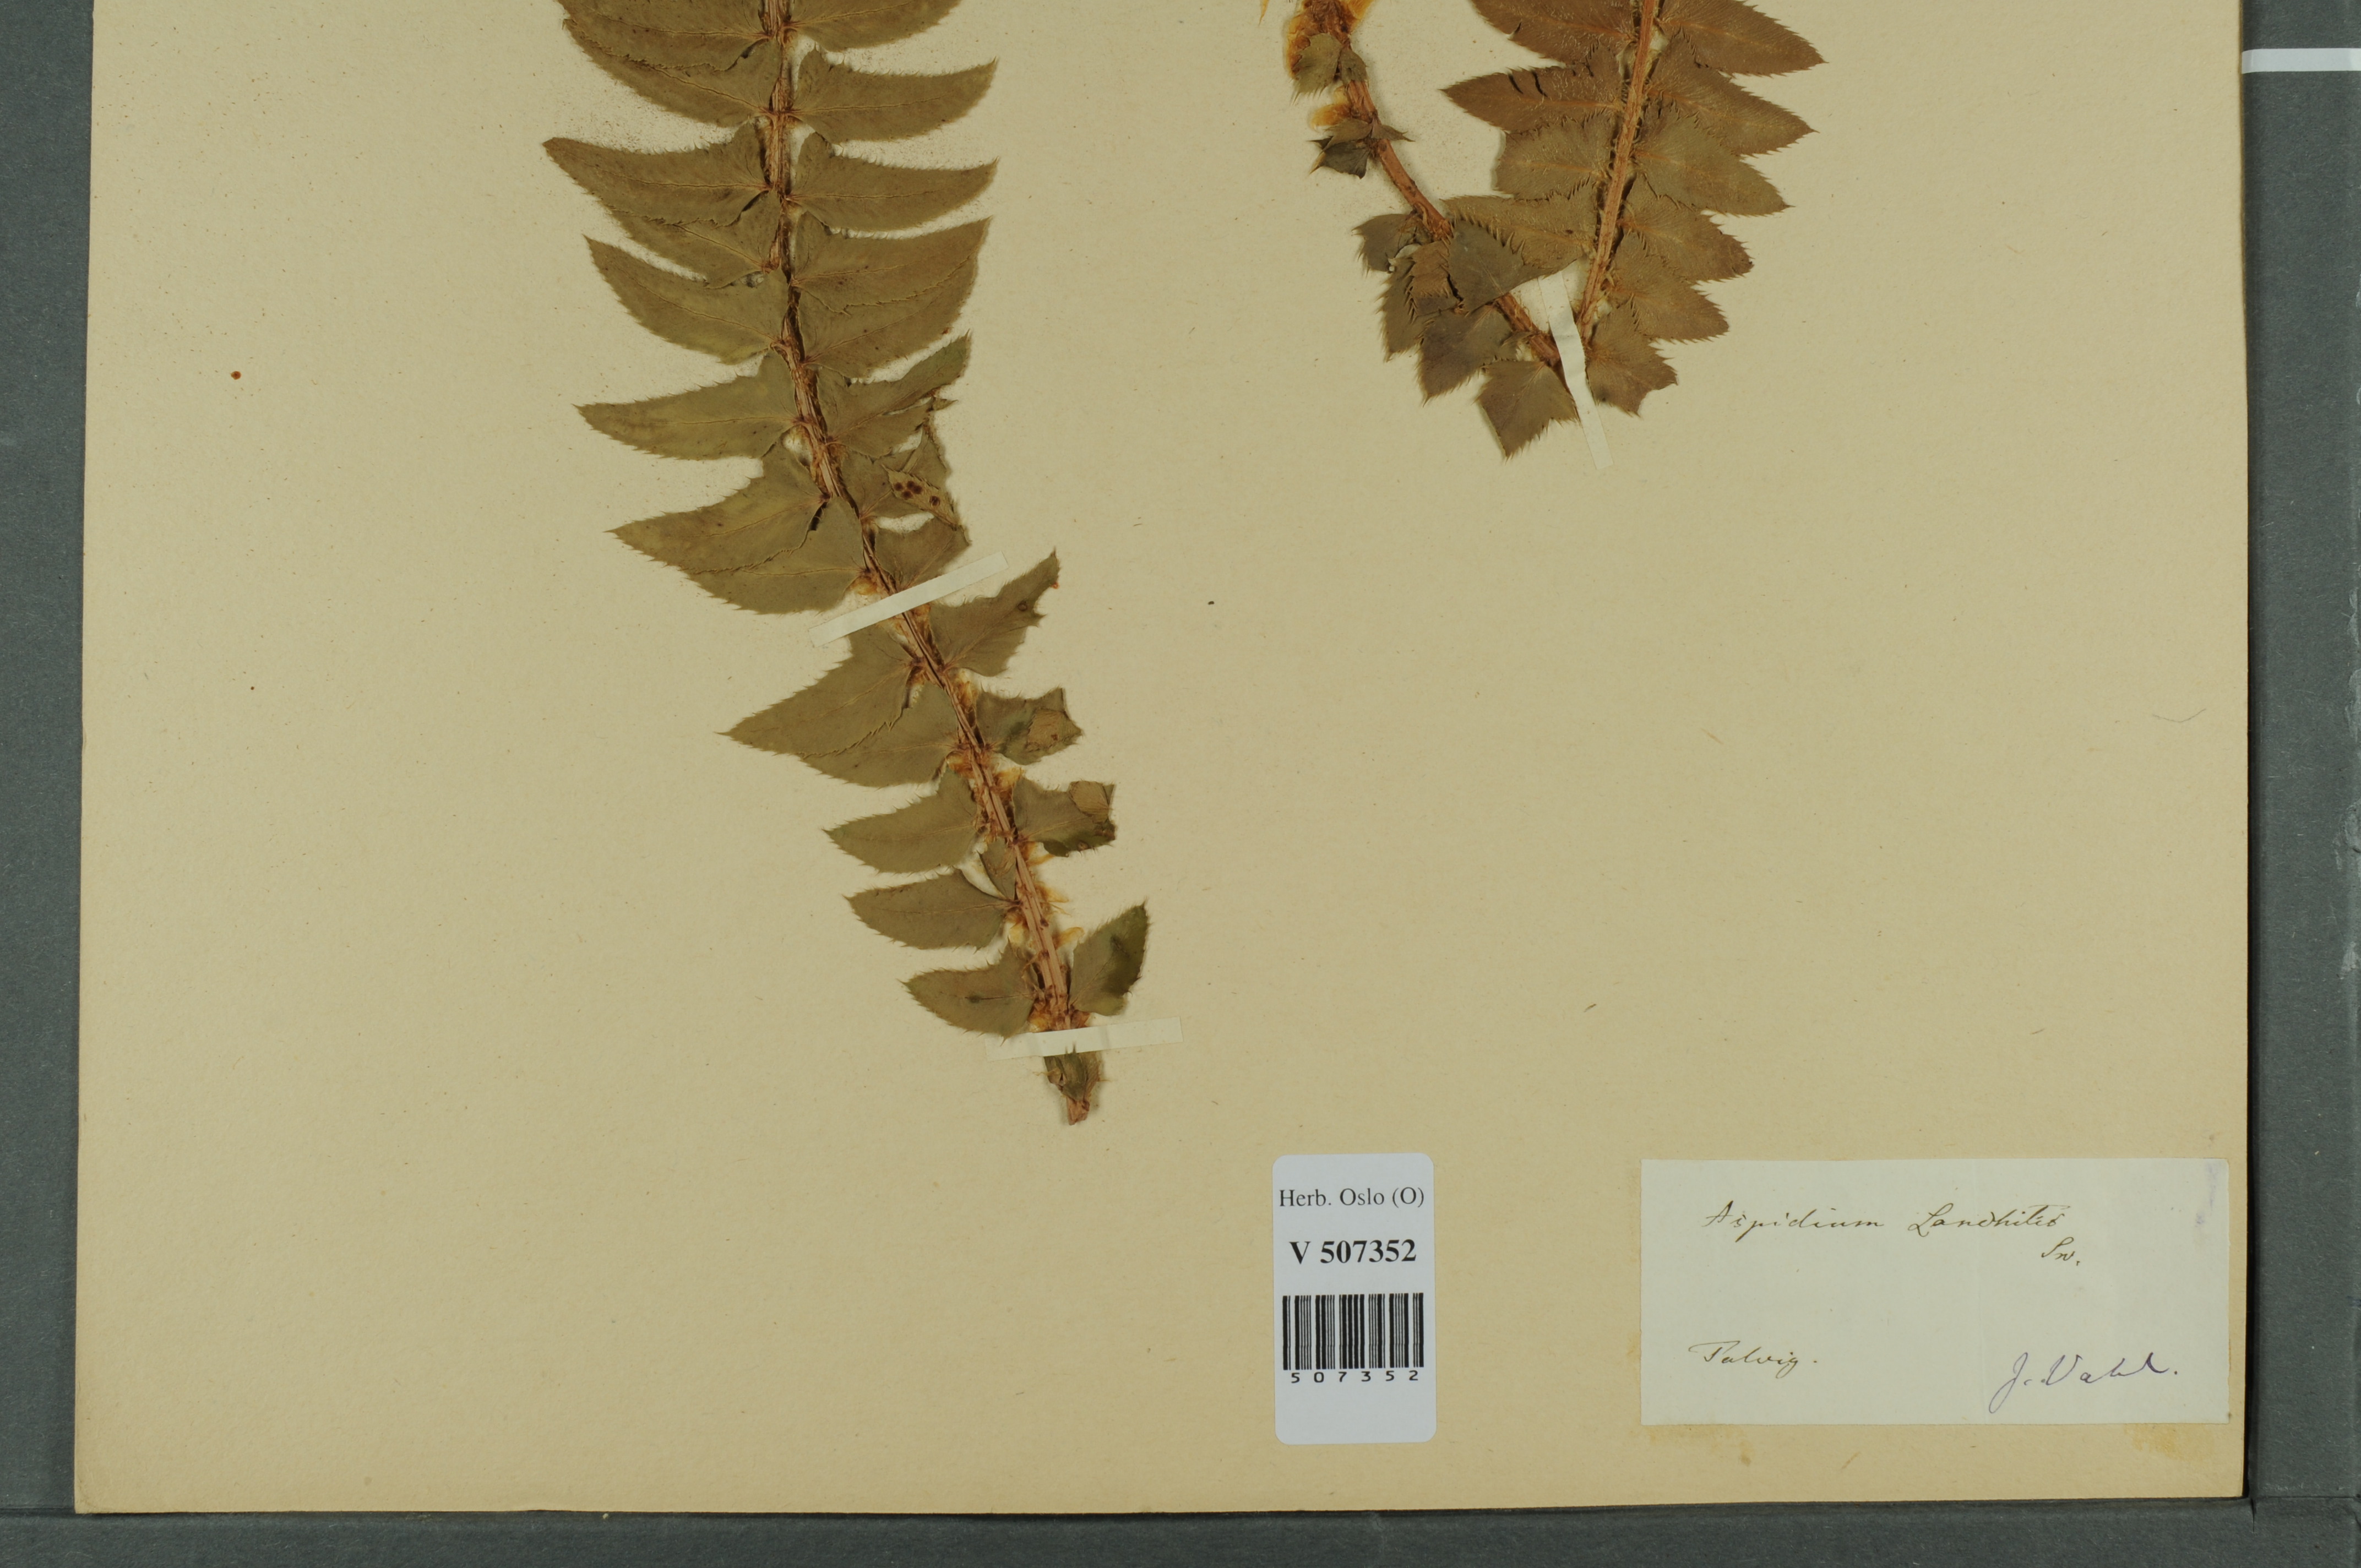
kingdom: Plantae
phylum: Tracheophyta
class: Polypodiopsida
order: Polypodiales
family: Dryopteridaceae
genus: Polystichum
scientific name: Polystichum lonchitis
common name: Holly fern
